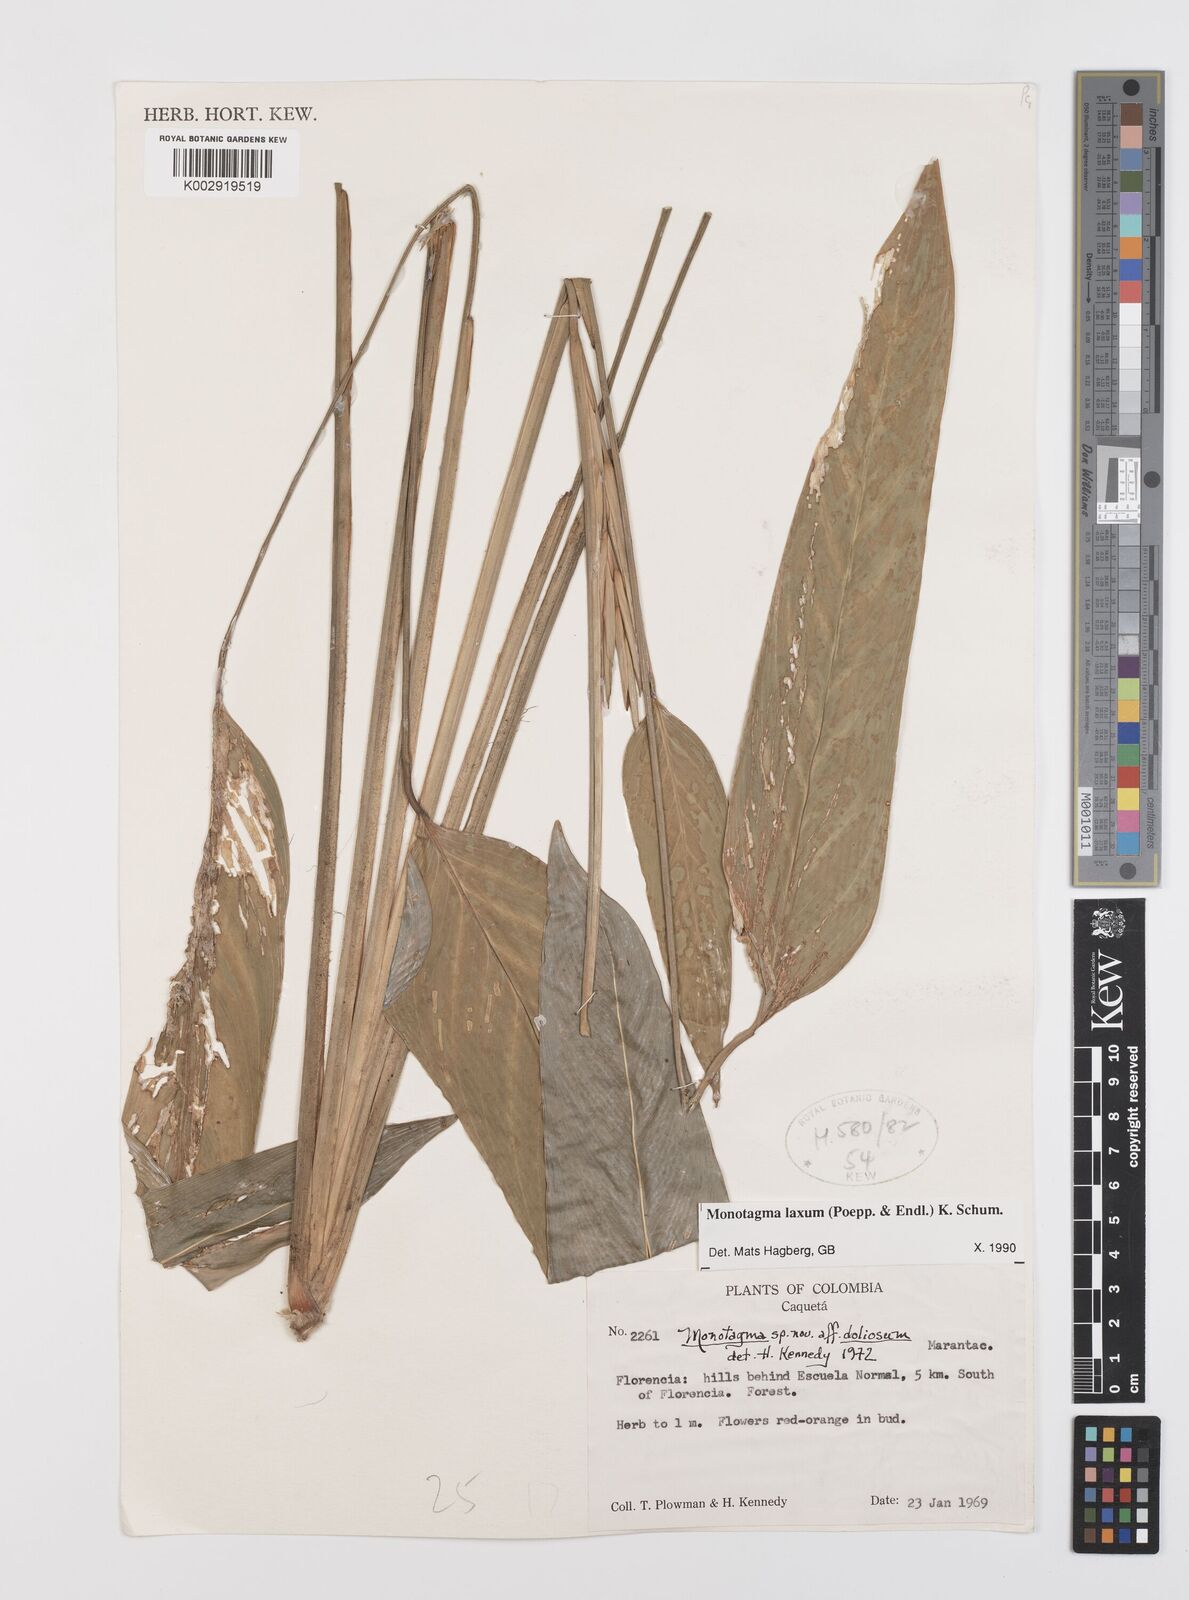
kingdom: Plantae
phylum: Tracheophyta
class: Liliopsida
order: Zingiberales
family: Marantaceae
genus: Monotagma
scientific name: Monotagma laxum
